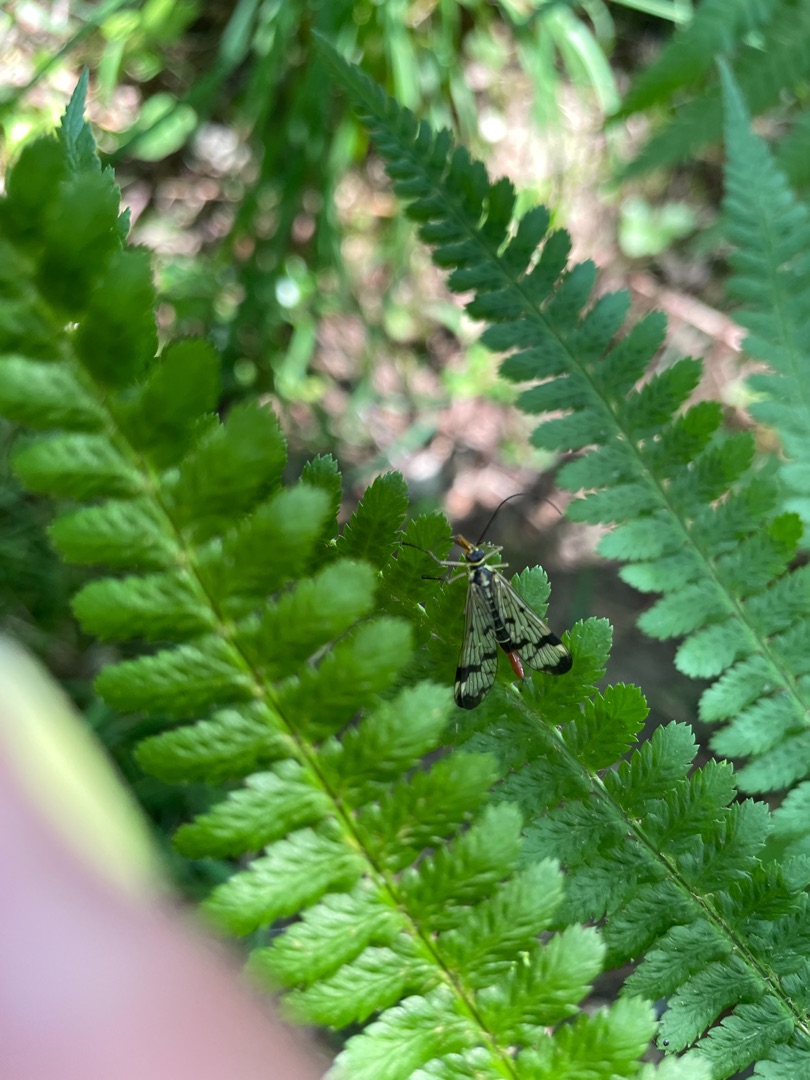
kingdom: Plantae
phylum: Tracheophyta
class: Polypodiopsida
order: Polypodiales
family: Athyriaceae
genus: Athyrium
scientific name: Athyrium filix-femina
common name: Fjerbregne
